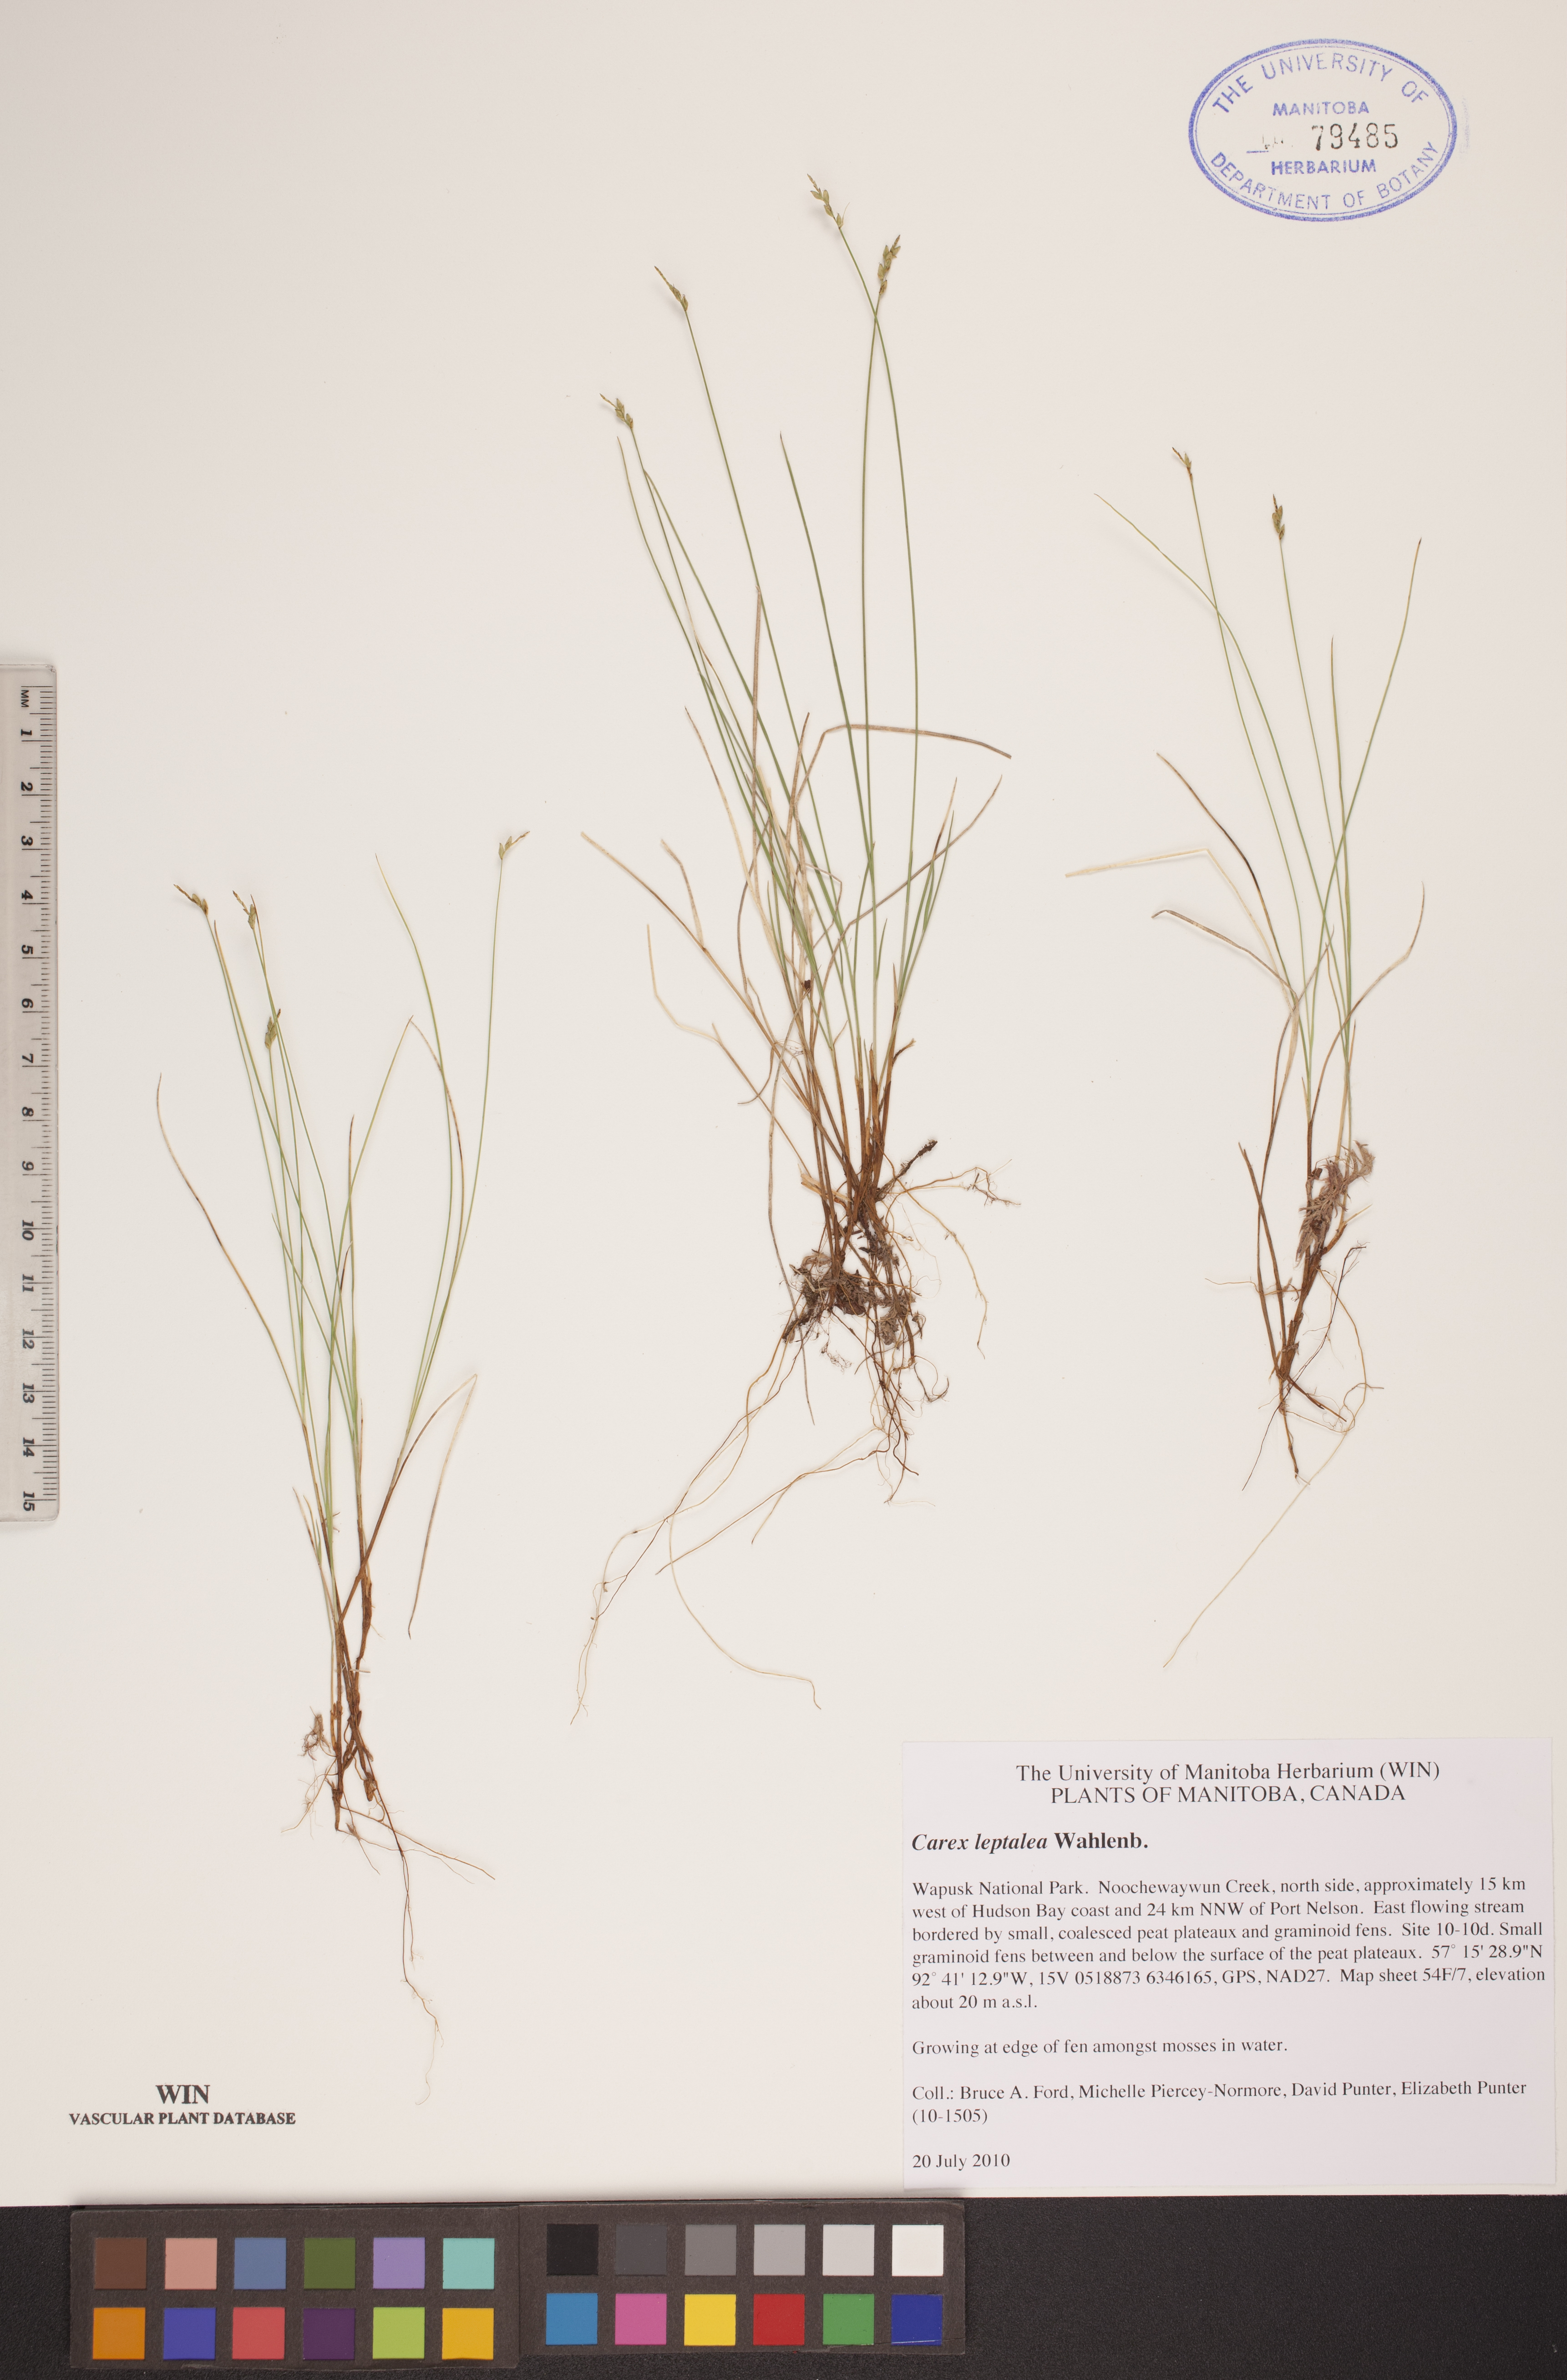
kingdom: Plantae
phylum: Tracheophyta
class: Liliopsida
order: Poales
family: Cyperaceae
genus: Carex
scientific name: Carex leptalea
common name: Bristly-stalked sedge
